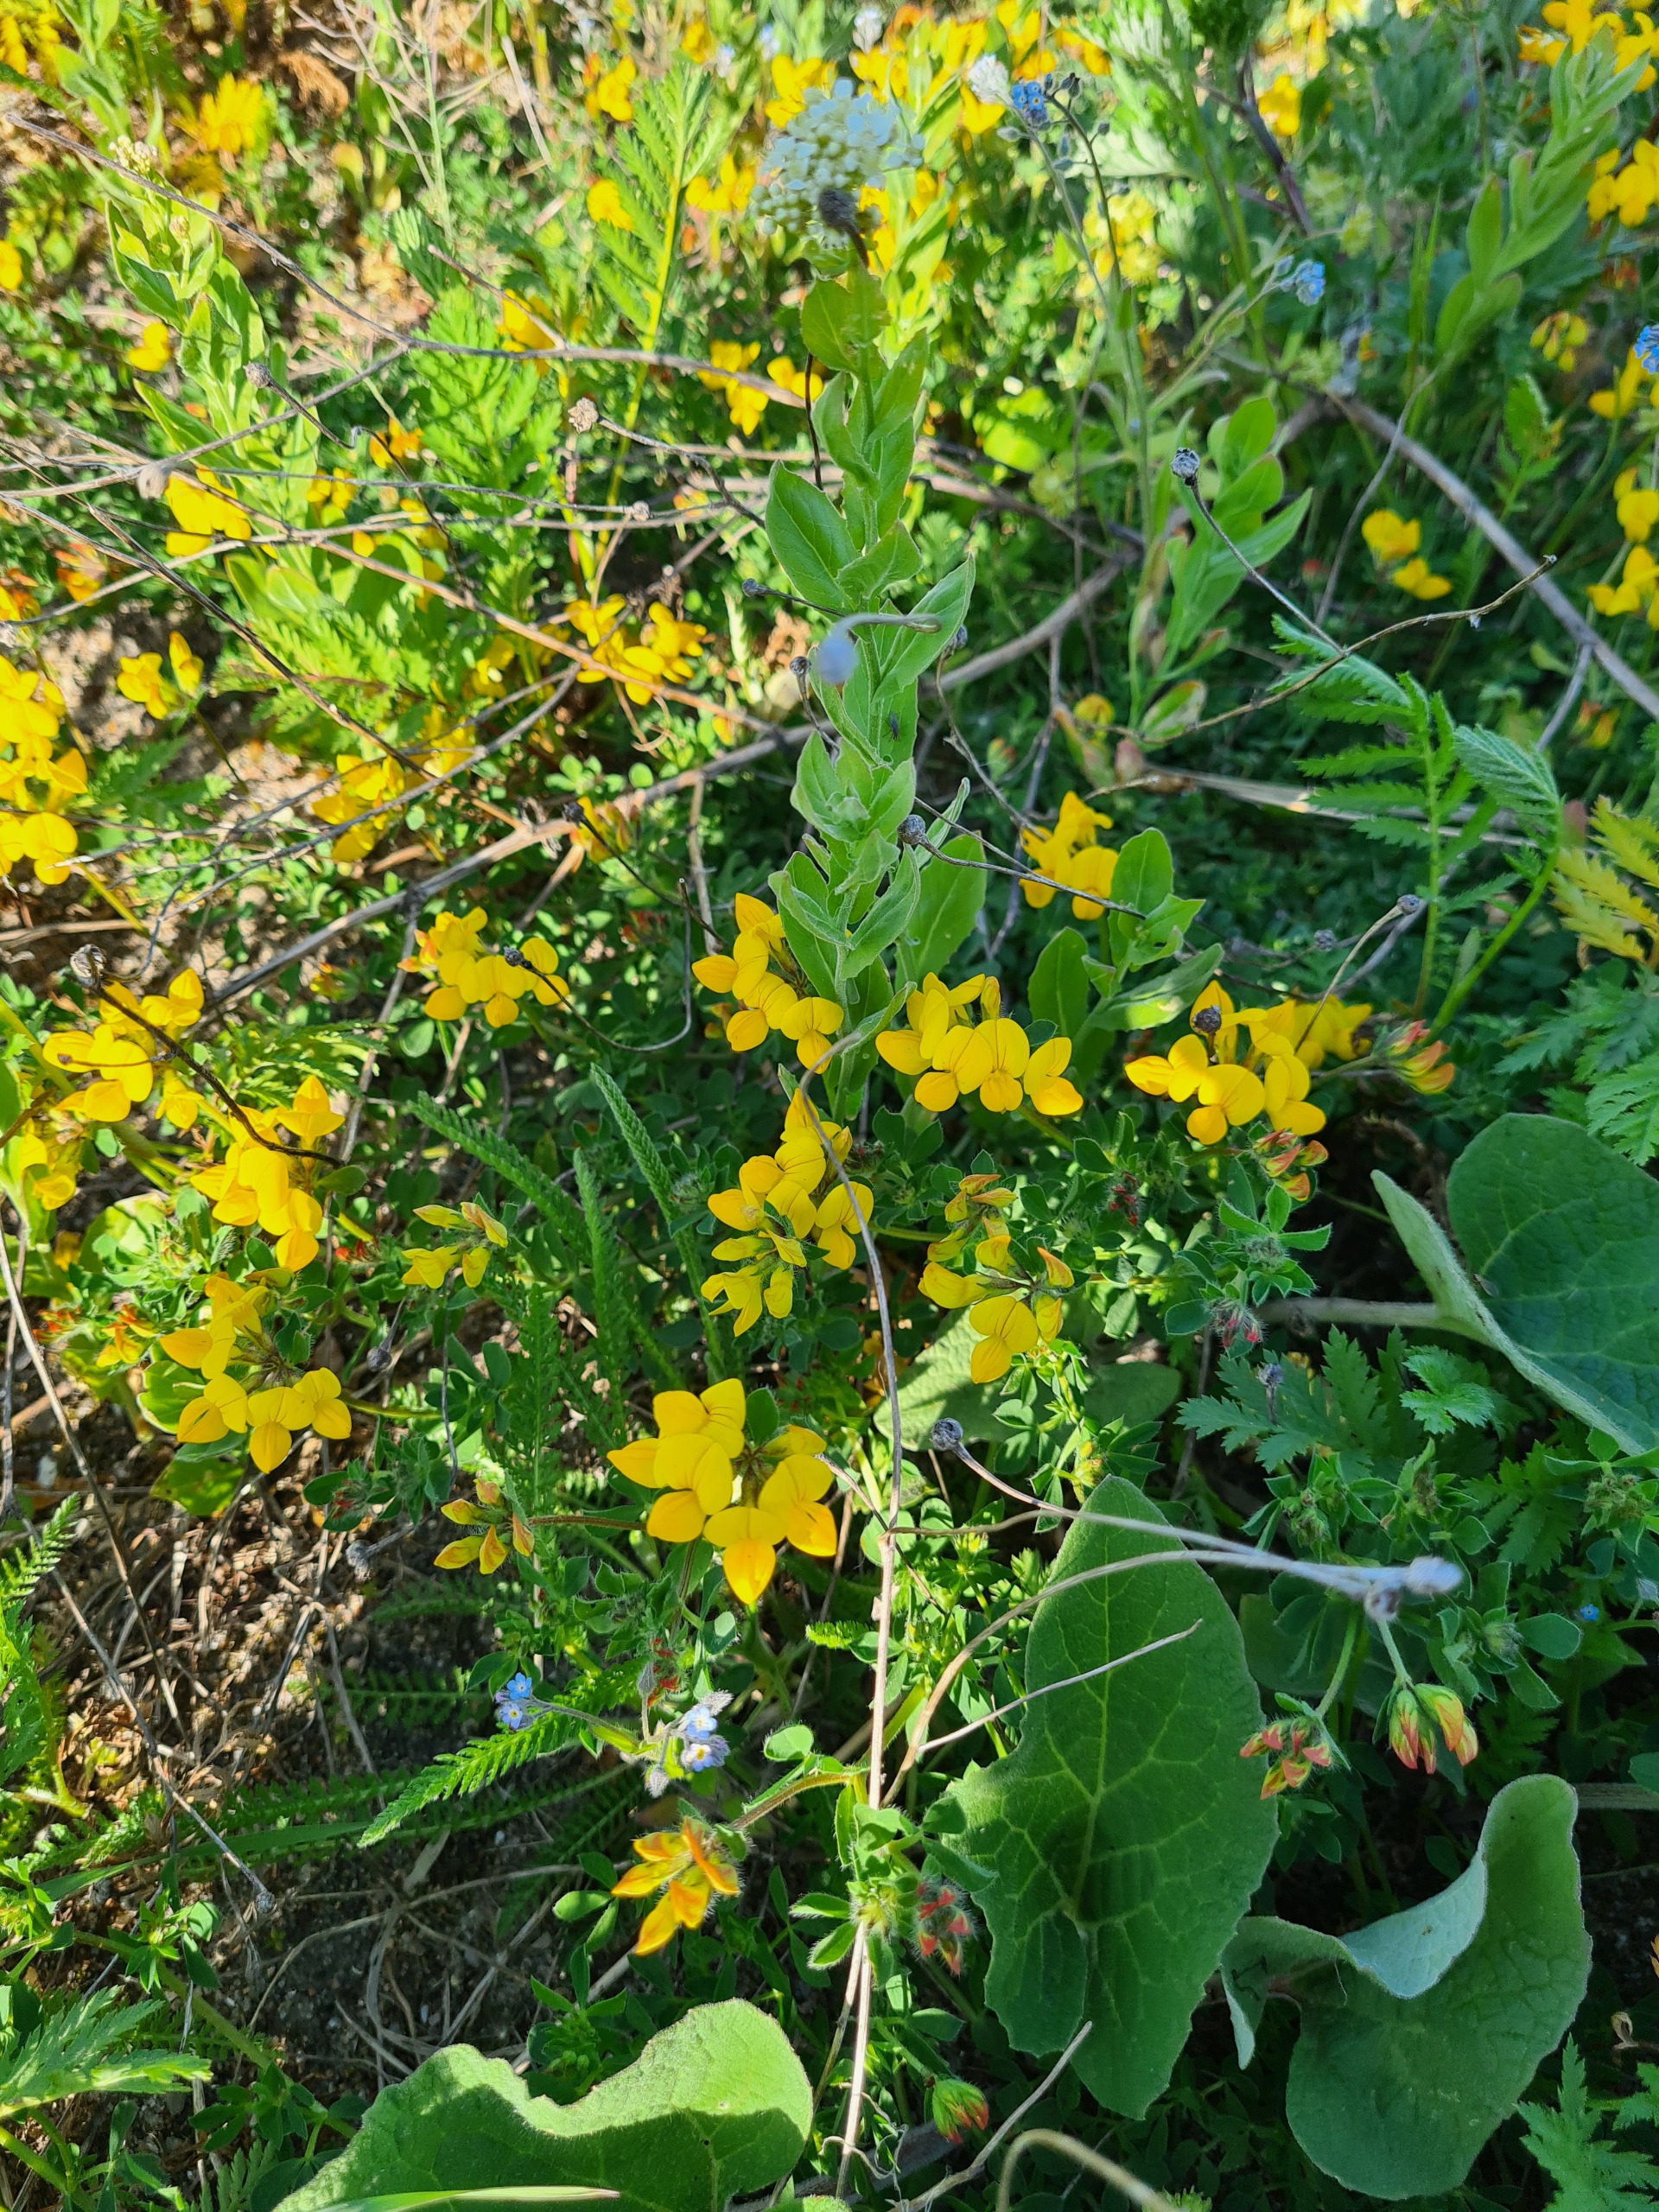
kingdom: Plantae
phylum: Tracheophyta
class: Magnoliopsida
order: Fabales
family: Fabaceae
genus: Lotus
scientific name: Lotus corniculatus
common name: Almindelig kællingetand
